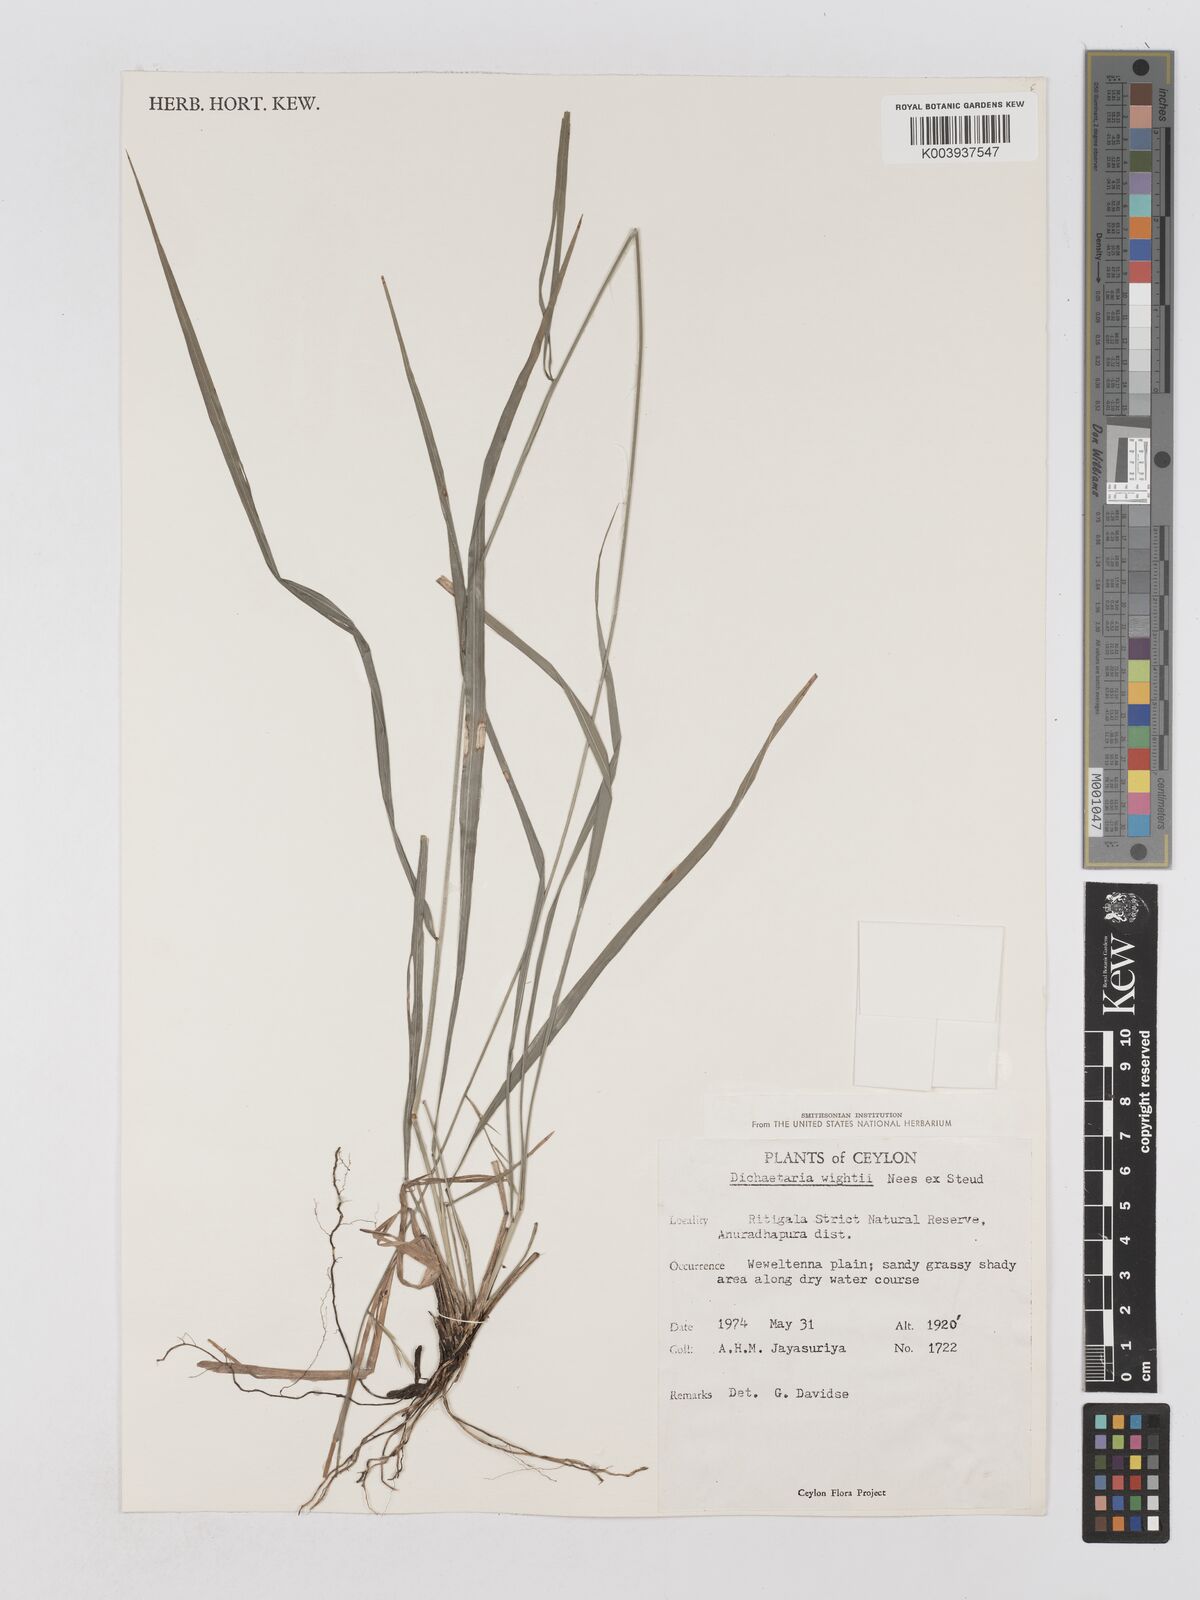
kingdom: Plantae
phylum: Tracheophyta
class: Liliopsida
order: Poales
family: Poaceae
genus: Dichaetaria
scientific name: Dichaetaria wightii
